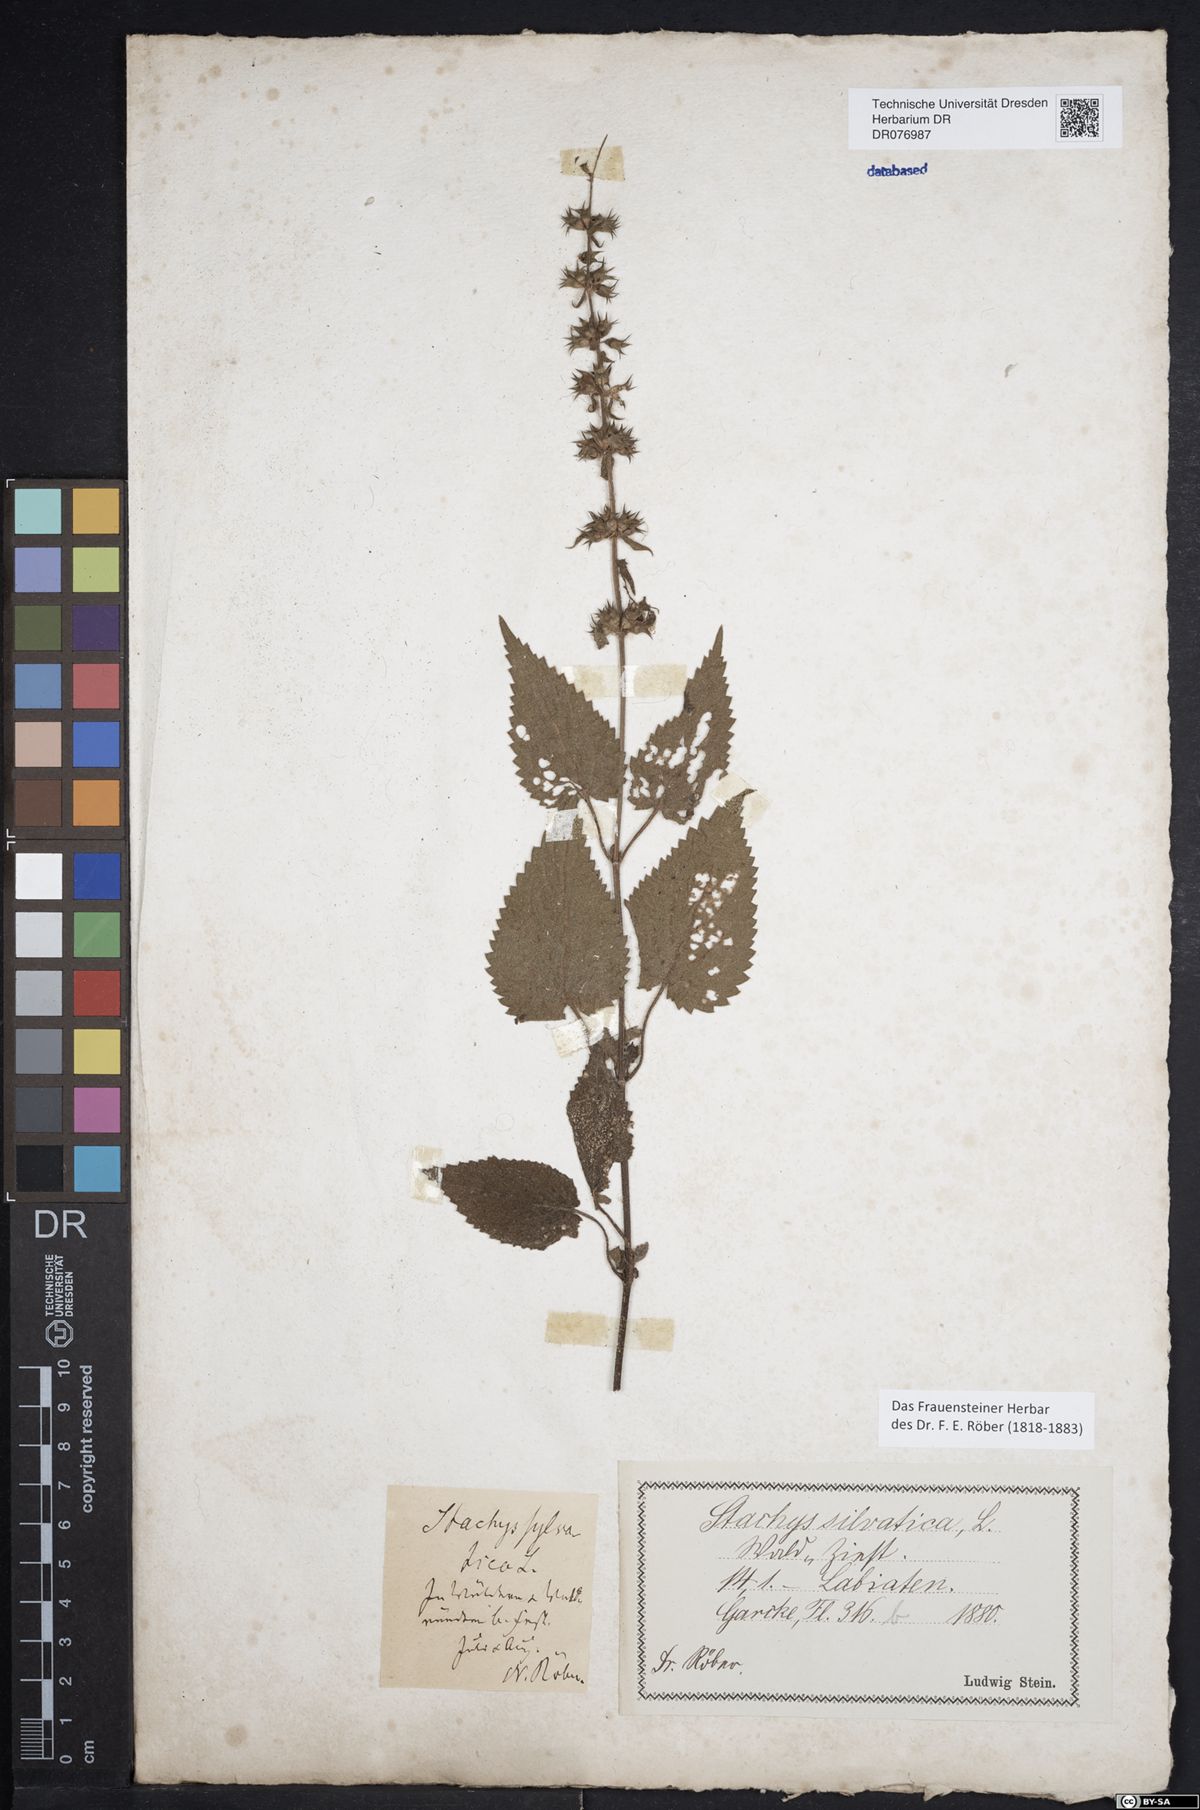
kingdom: Plantae
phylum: Tracheophyta
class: Magnoliopsida
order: Lamiales
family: Lamiaceae
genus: Stachys
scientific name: Stachys sylvatica
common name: Hedge woundwort
